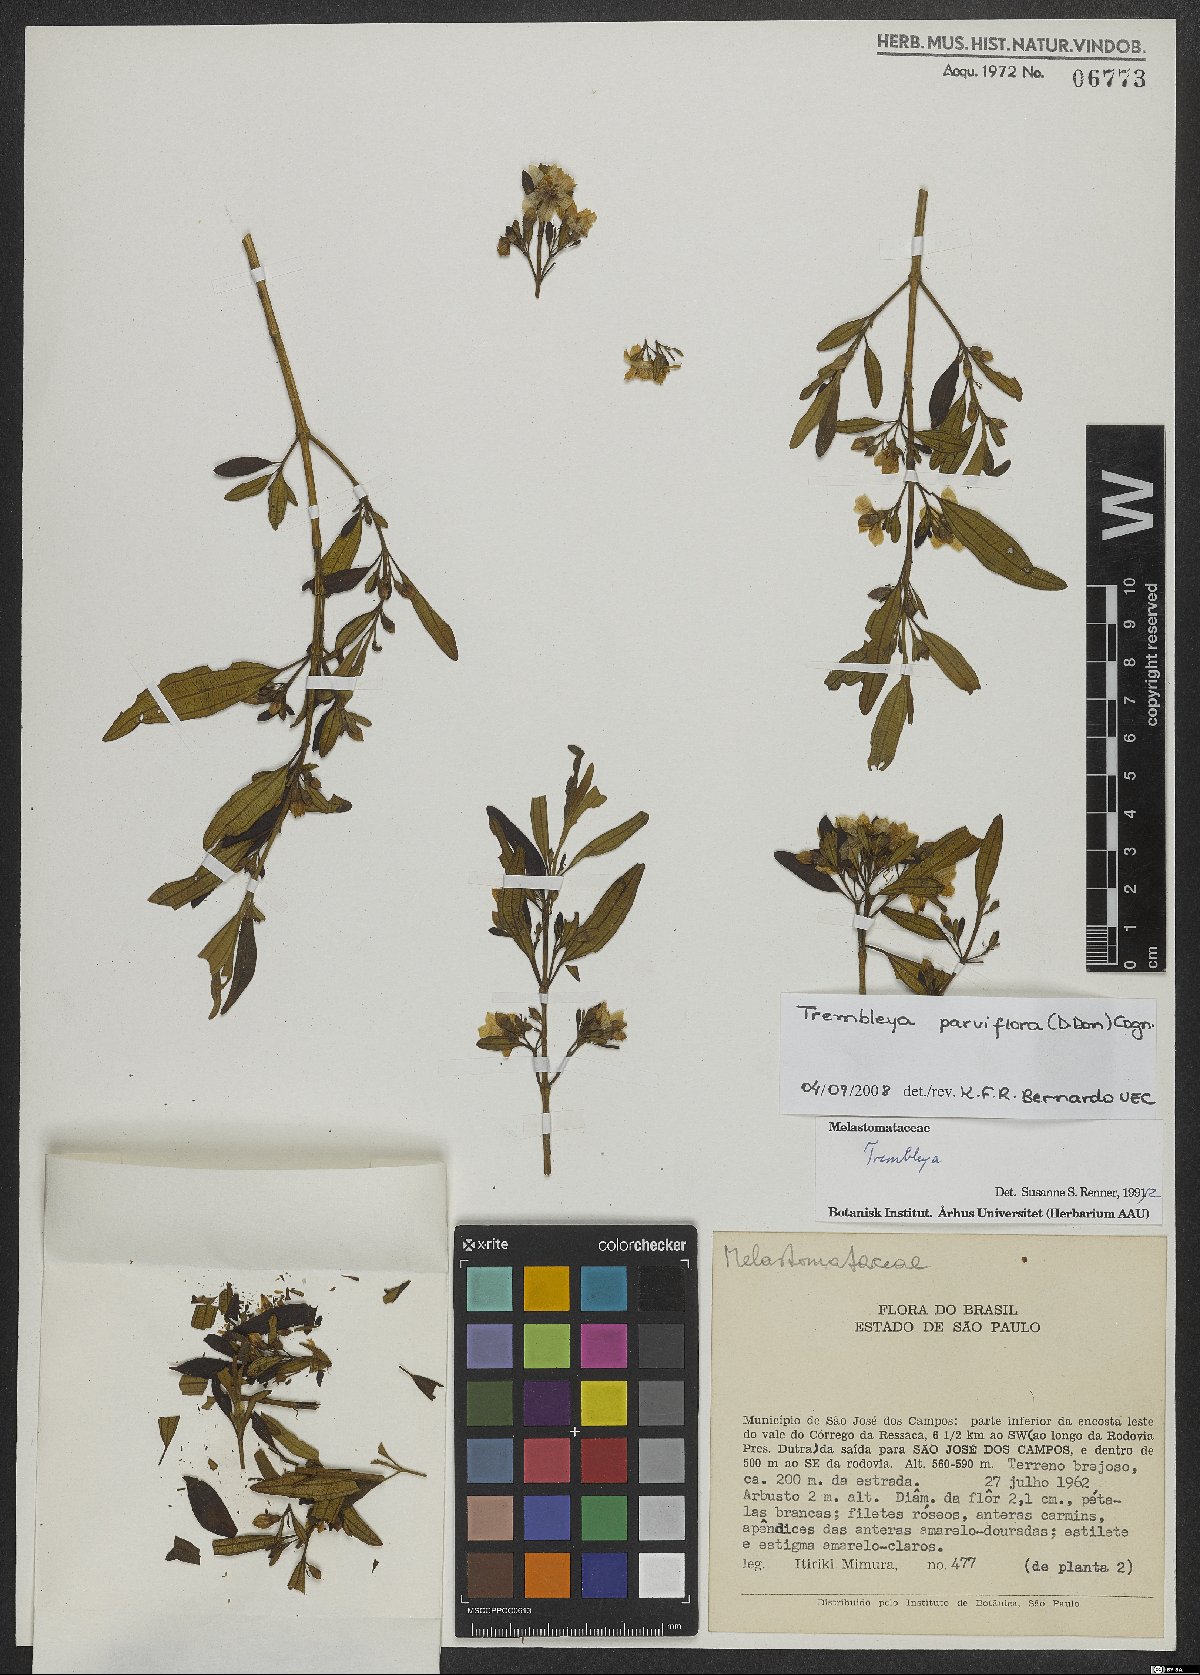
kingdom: Plantae
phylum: Tracheophyta
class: Magnoliopsida
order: Myrtales
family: Melastomataceae
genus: Microlicia
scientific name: Microlicia parviflora
